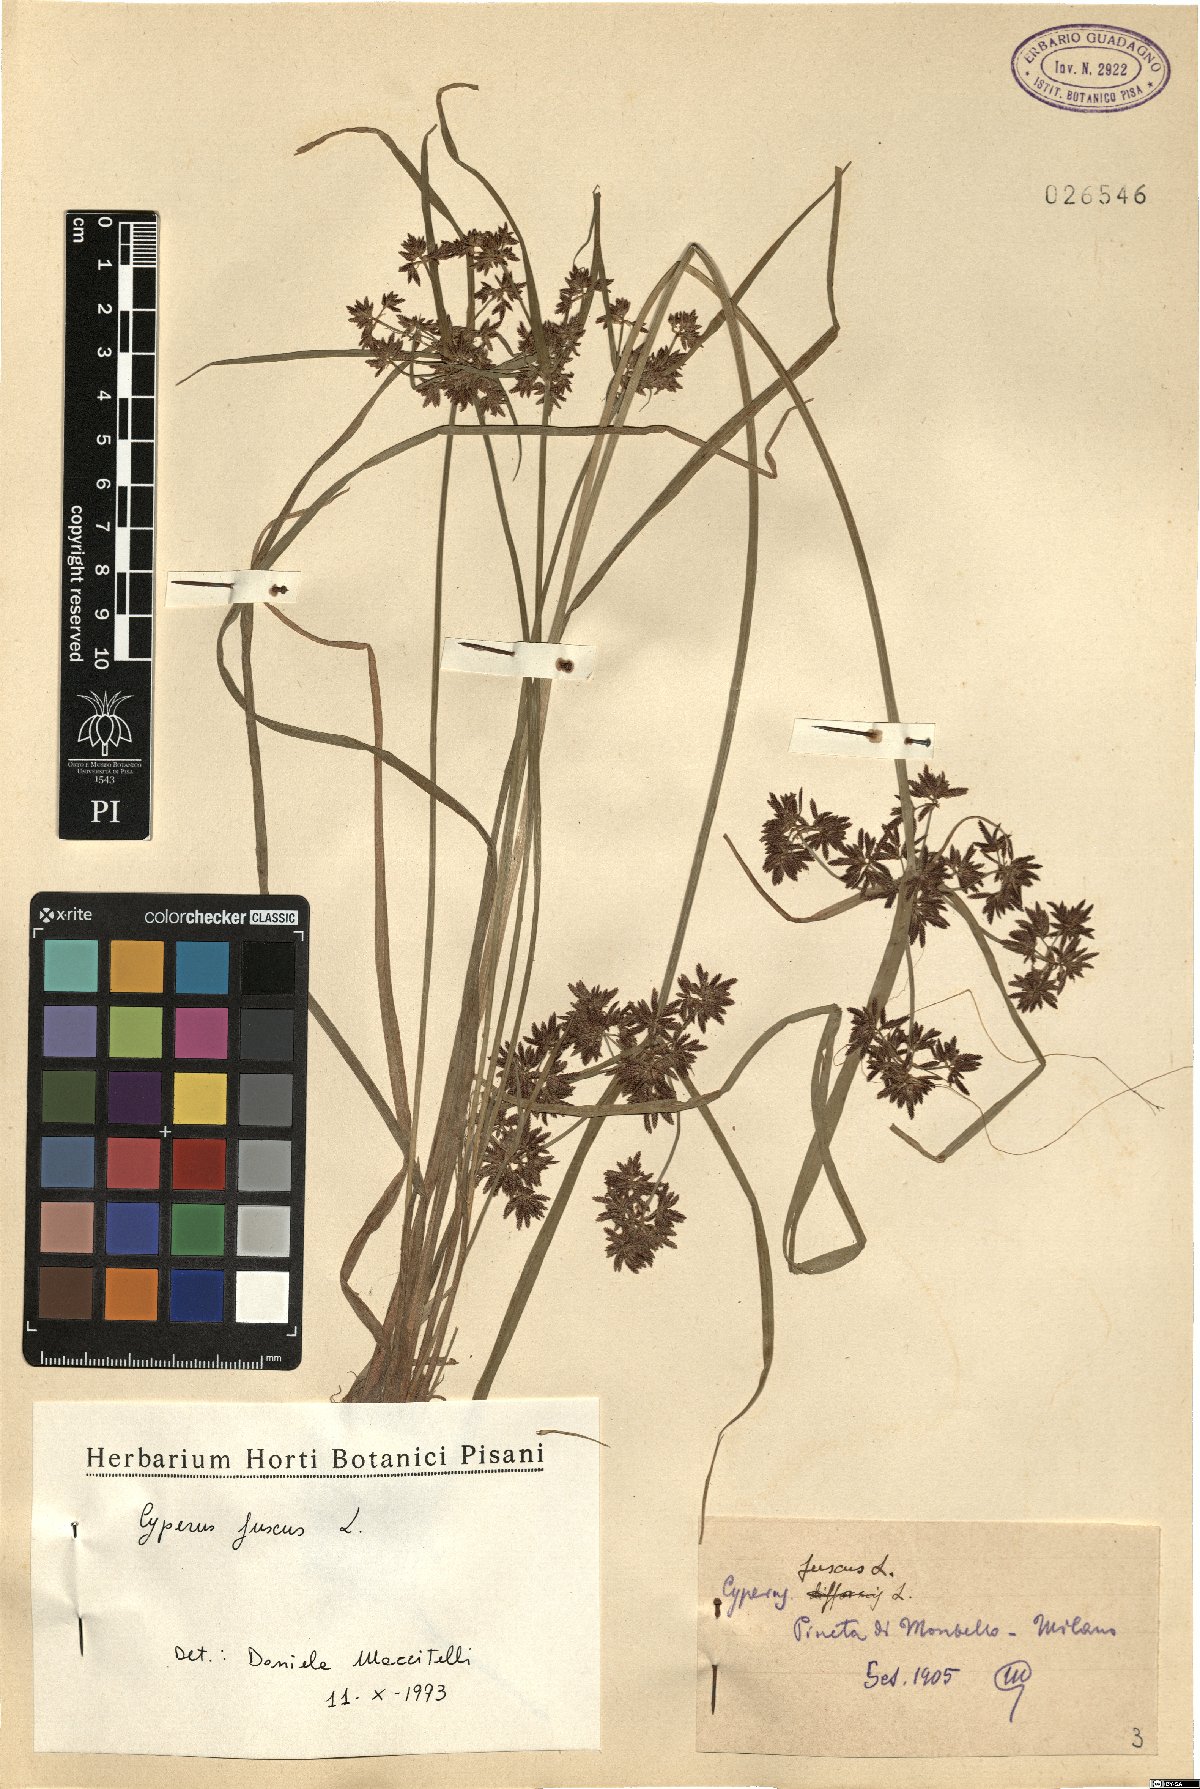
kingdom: Plantae
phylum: Tracheophyta
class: Liliopsida
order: Poales
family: Cyperaceae
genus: Cyperus
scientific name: Cyperus fuscus
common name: Brown galingale
